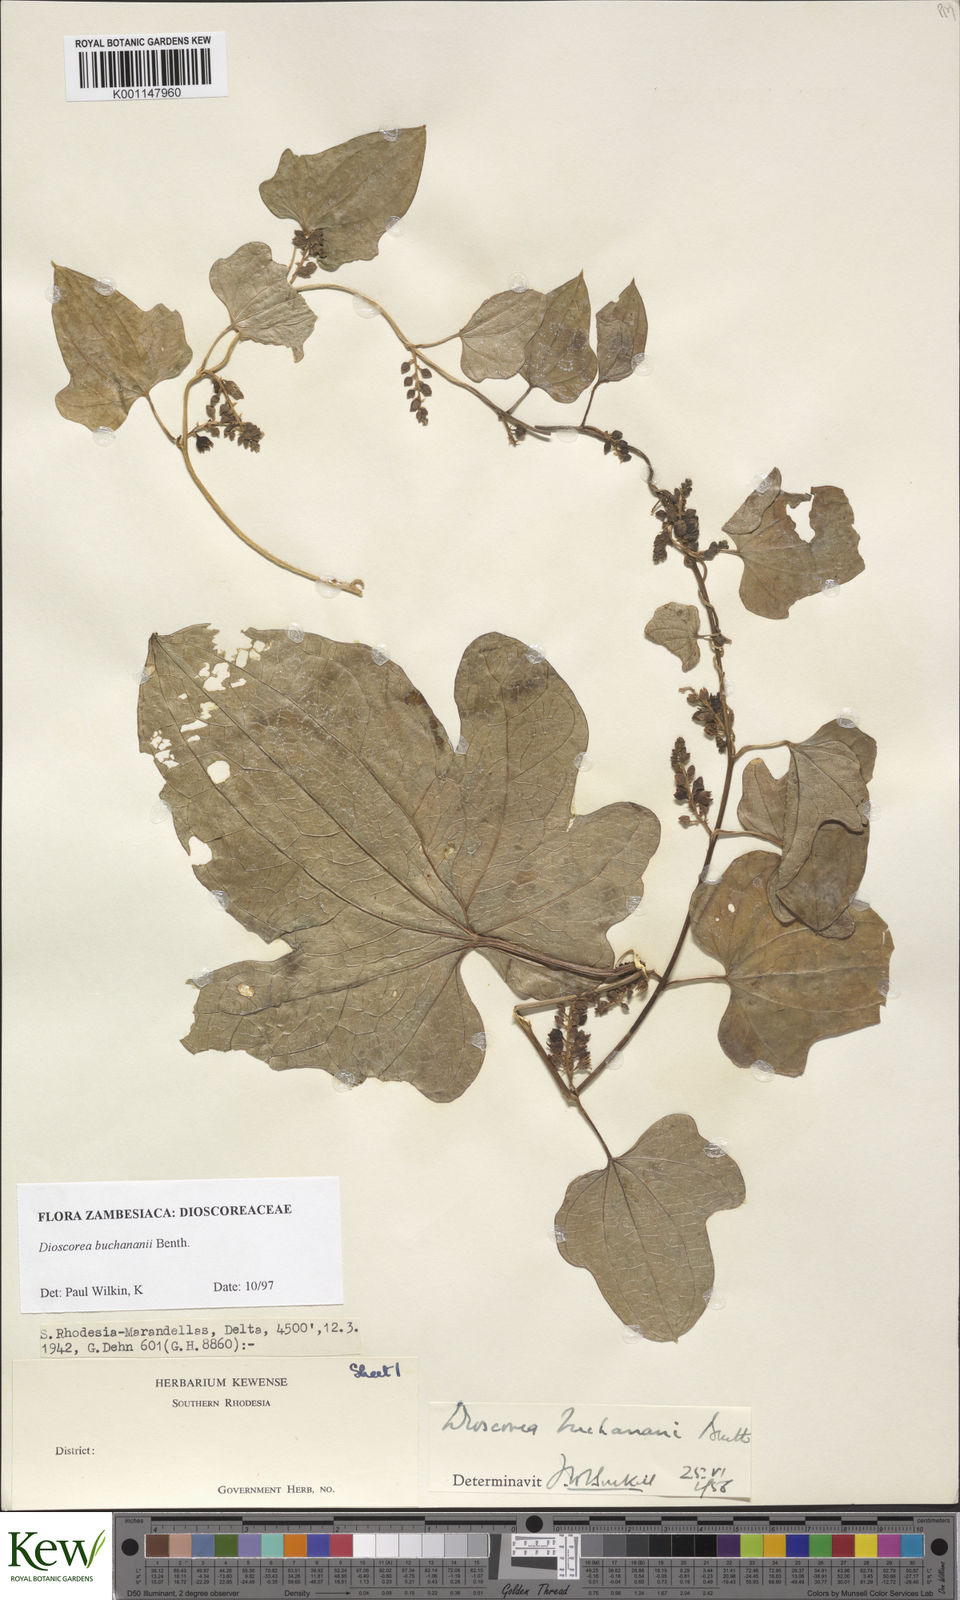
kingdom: Plantae
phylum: Tracheophyta
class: Liliopsida
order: Dioscoreales
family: Dioscoreaceae
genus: Dioscorea
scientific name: Dioscorea buchananii
